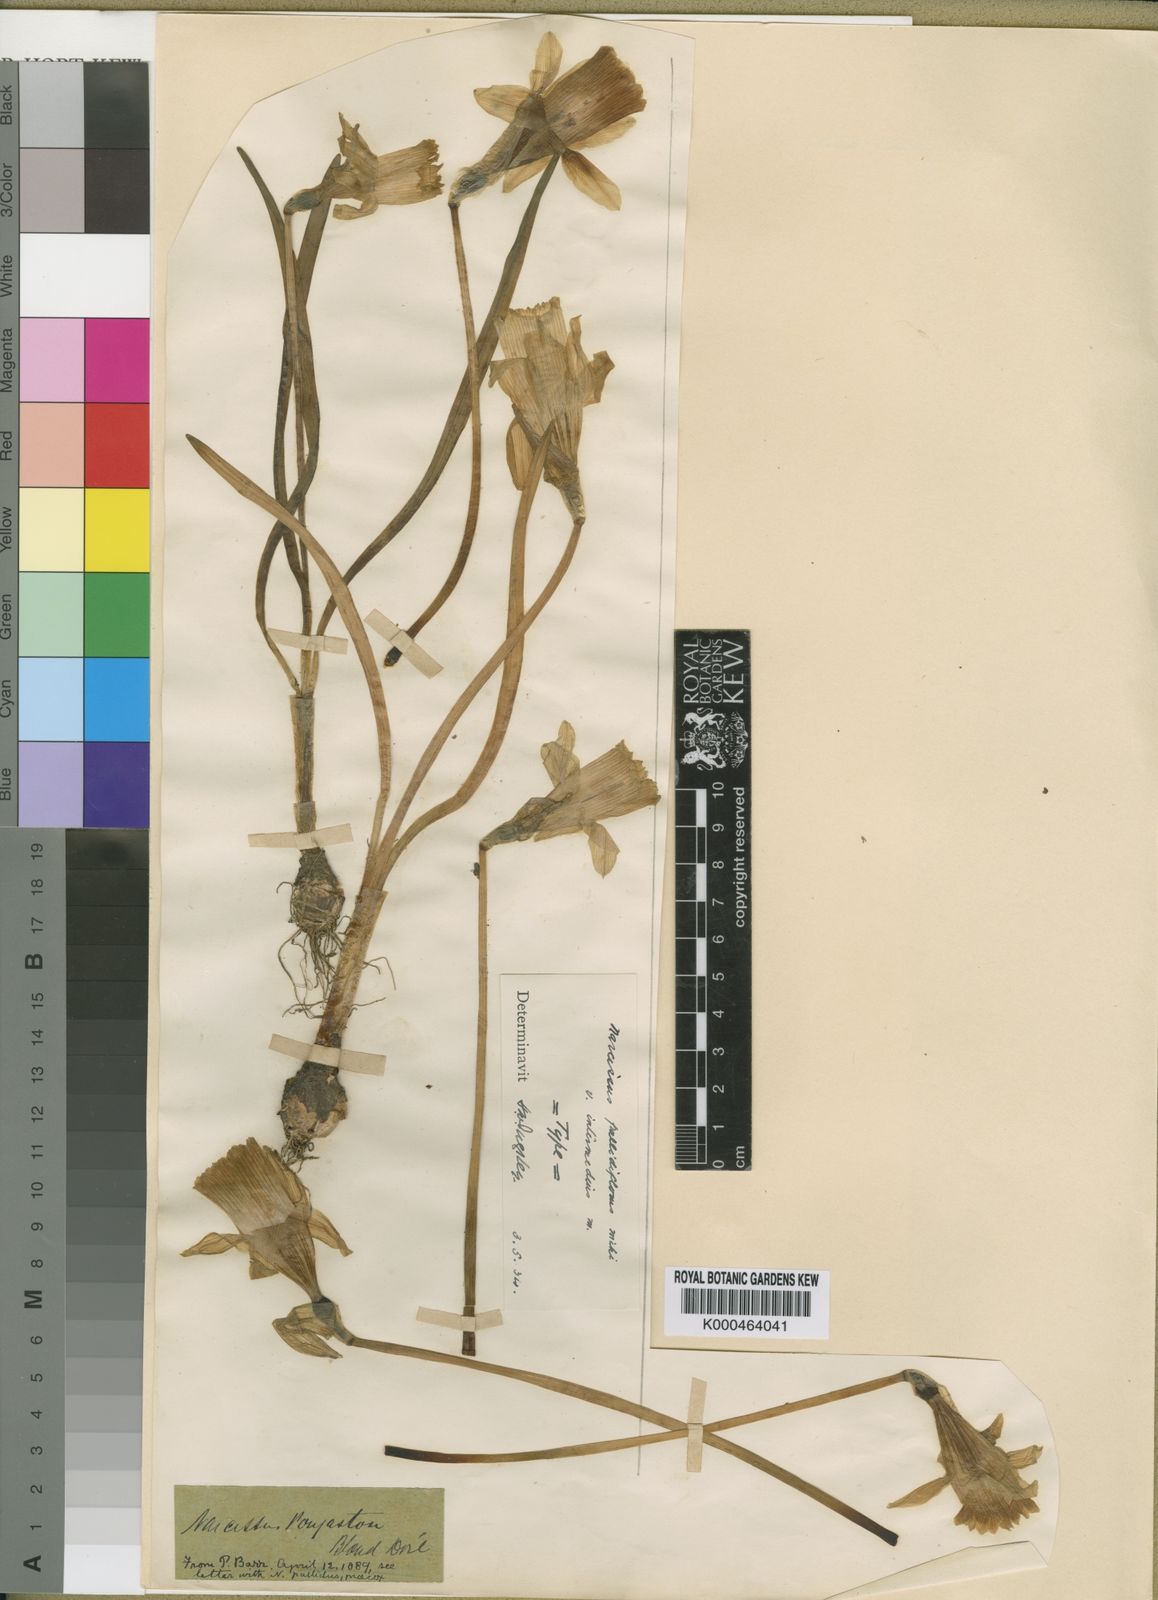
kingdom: Plantae
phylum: Tracheophyta
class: Liliopsida
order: Asparagales
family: Amaryllidaceae
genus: Narcissus
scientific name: Narcissus pallidiflorus
